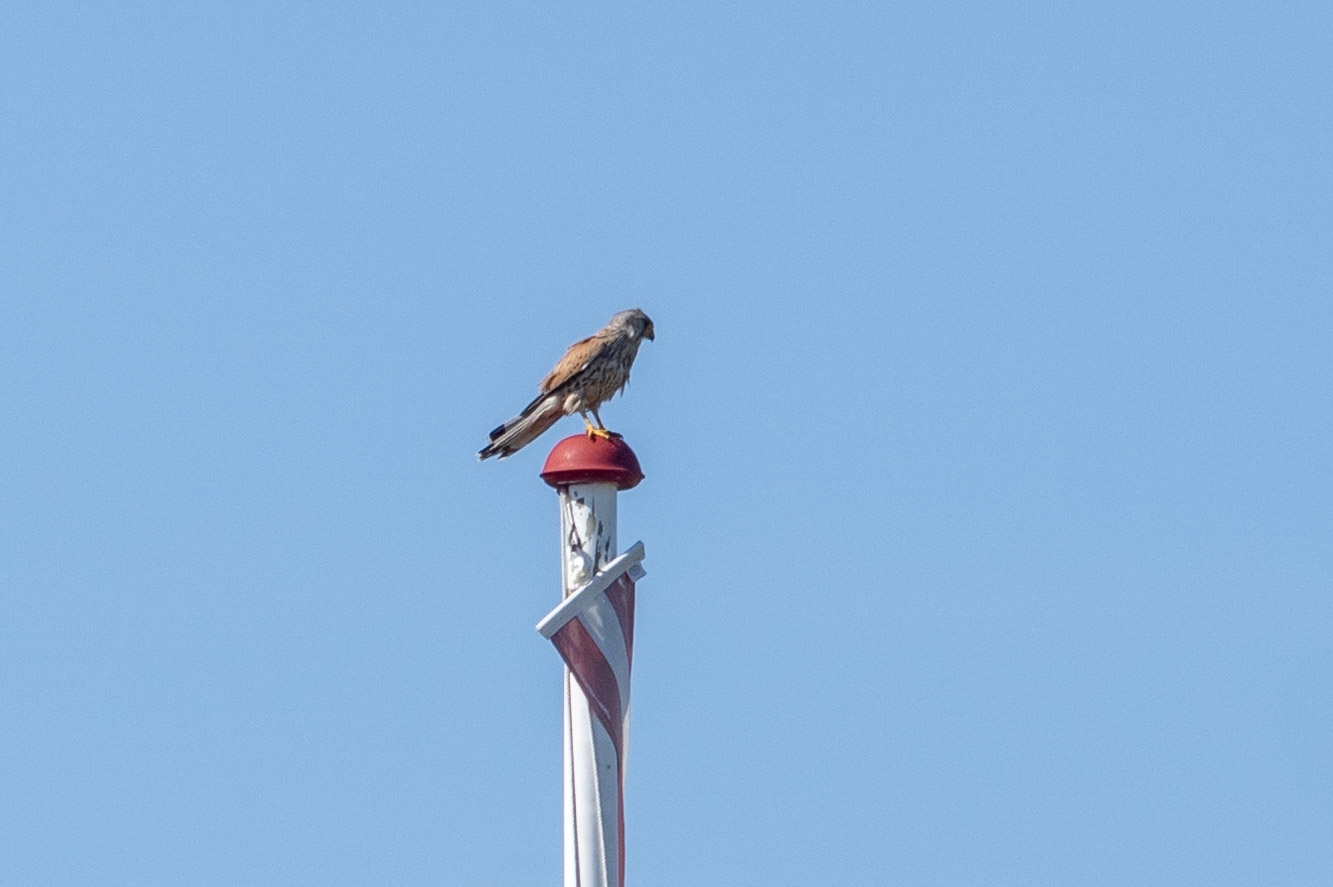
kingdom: Animalia
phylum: Chordata
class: Aves
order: Falconiformes
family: Falconidae
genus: Falco
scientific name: Falco tinnunculus
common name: Tårnfalk
